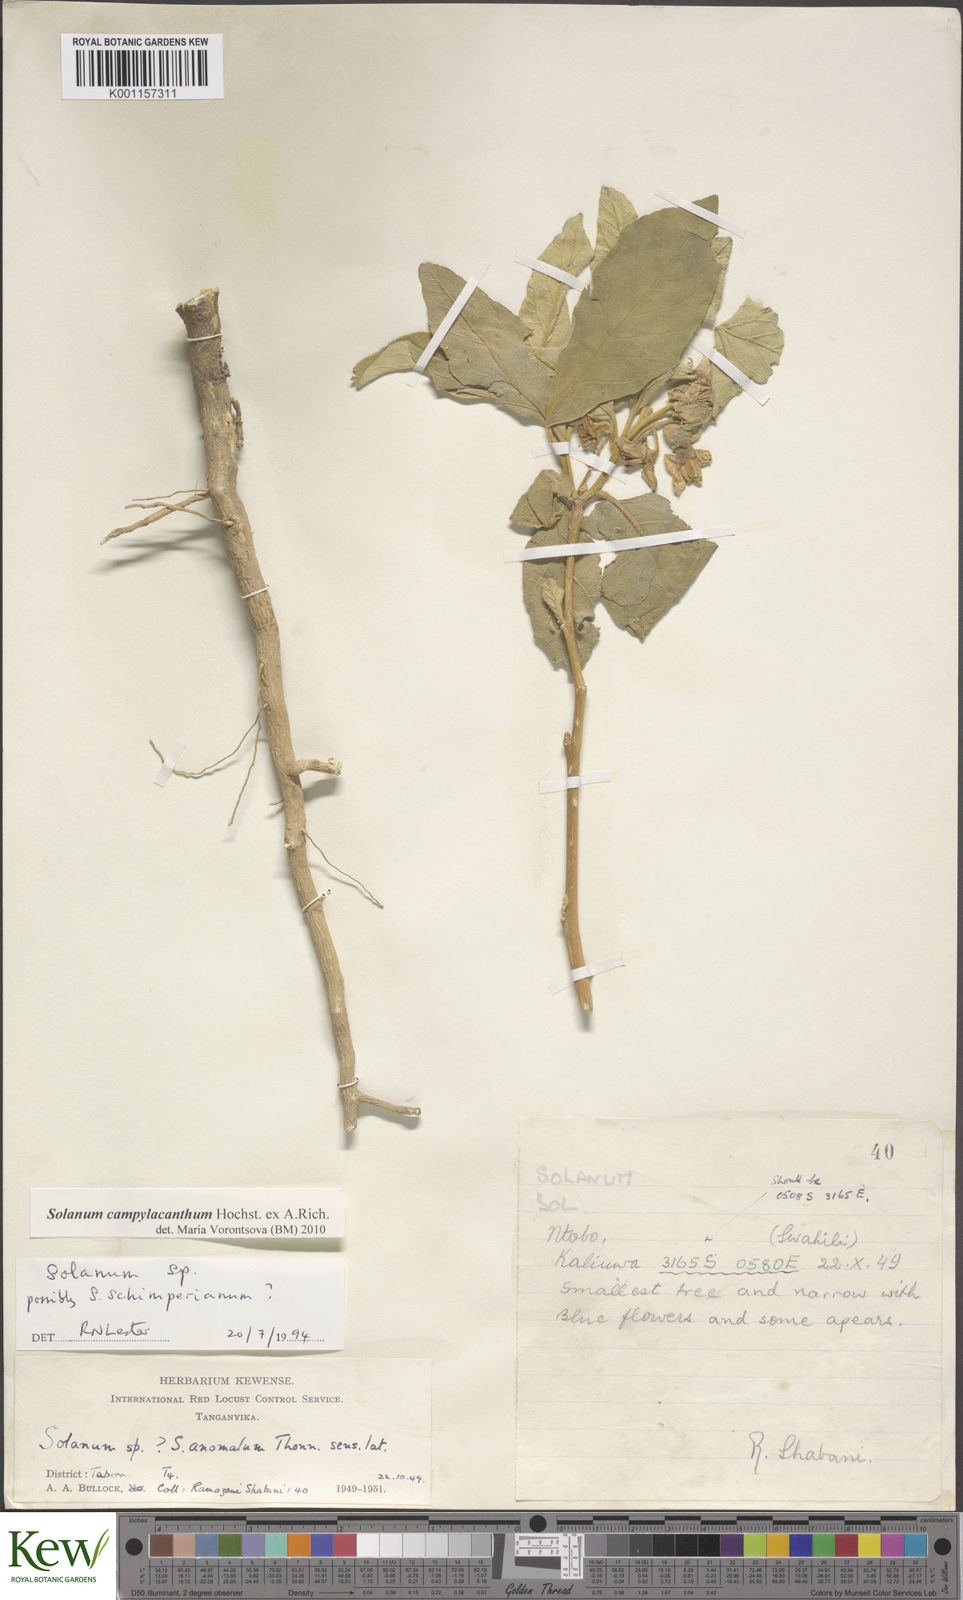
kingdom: Plantae
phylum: Tracheophyta
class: Magnoliopsida
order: Solanales
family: Solanaceae
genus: Solanum
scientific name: Solanum campylacanthum
